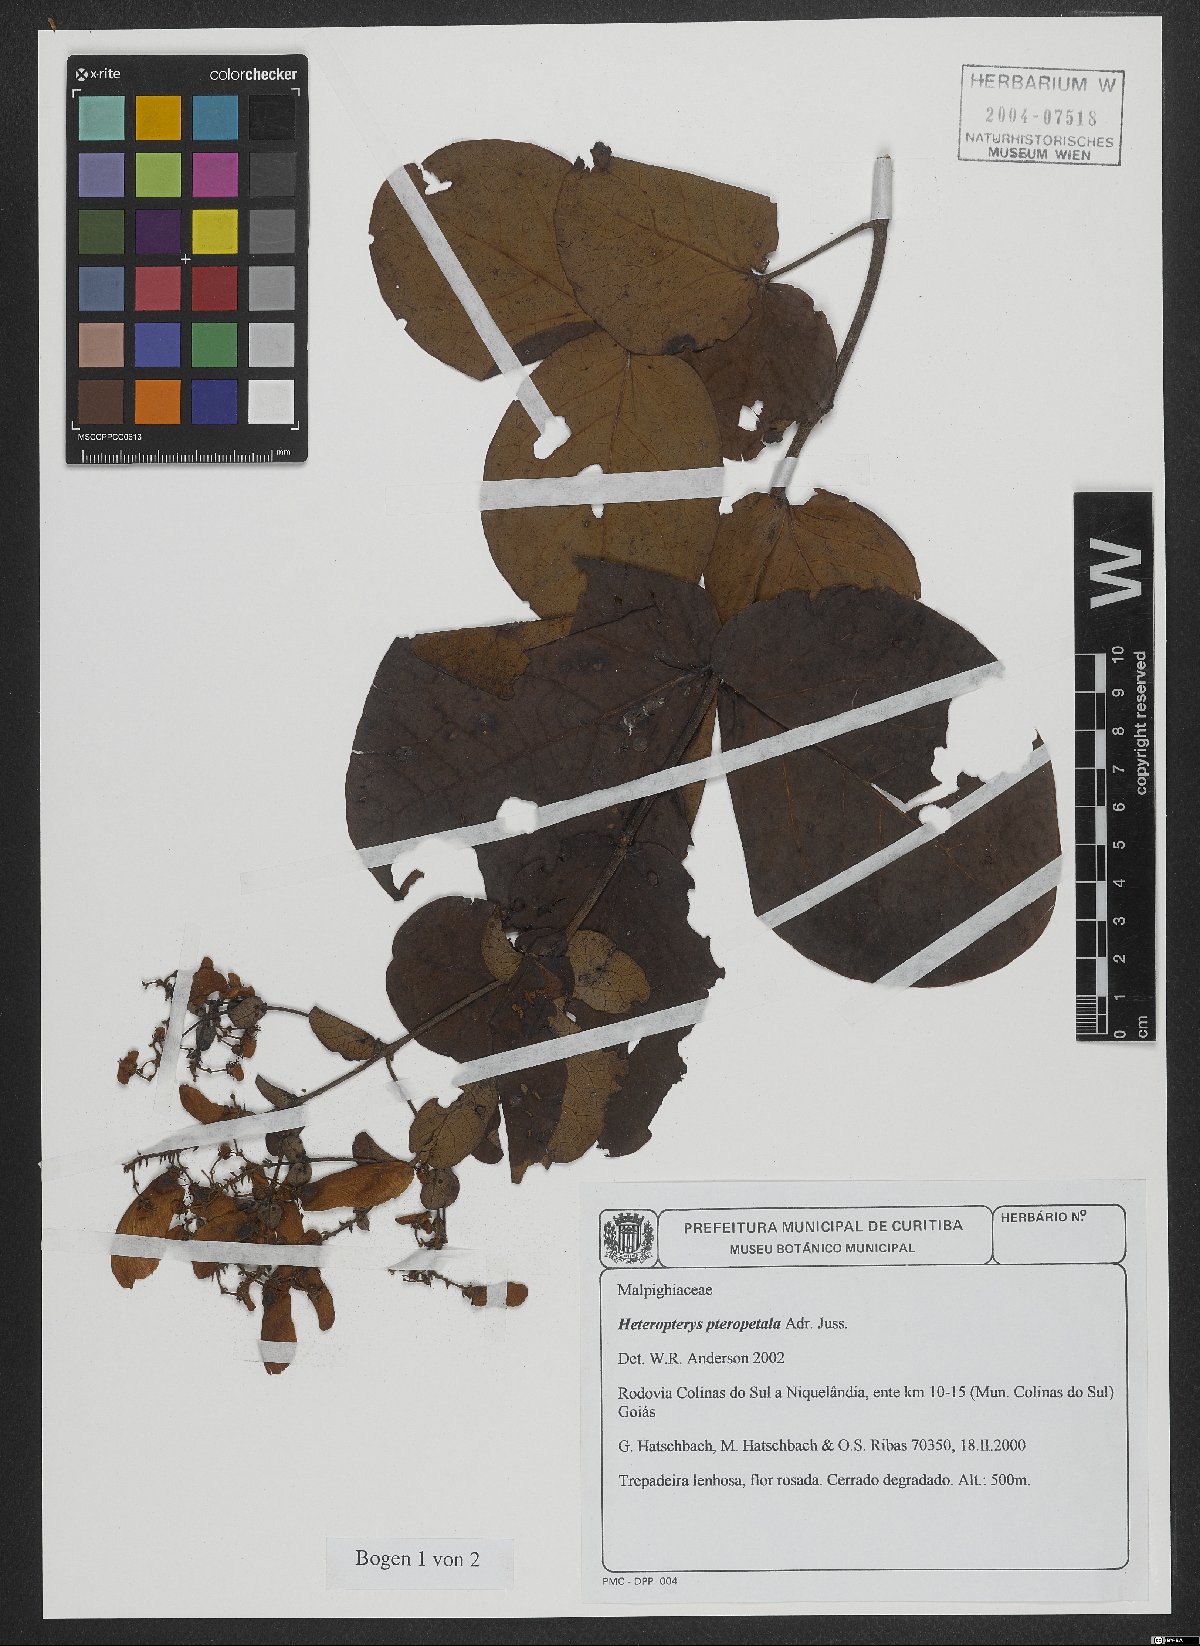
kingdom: Plantae
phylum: Tracheophyta
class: Magnoliopsida
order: Malpighiales
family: Malpighiaceae
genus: Heteropterys
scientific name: Heteropterys pteropetala
